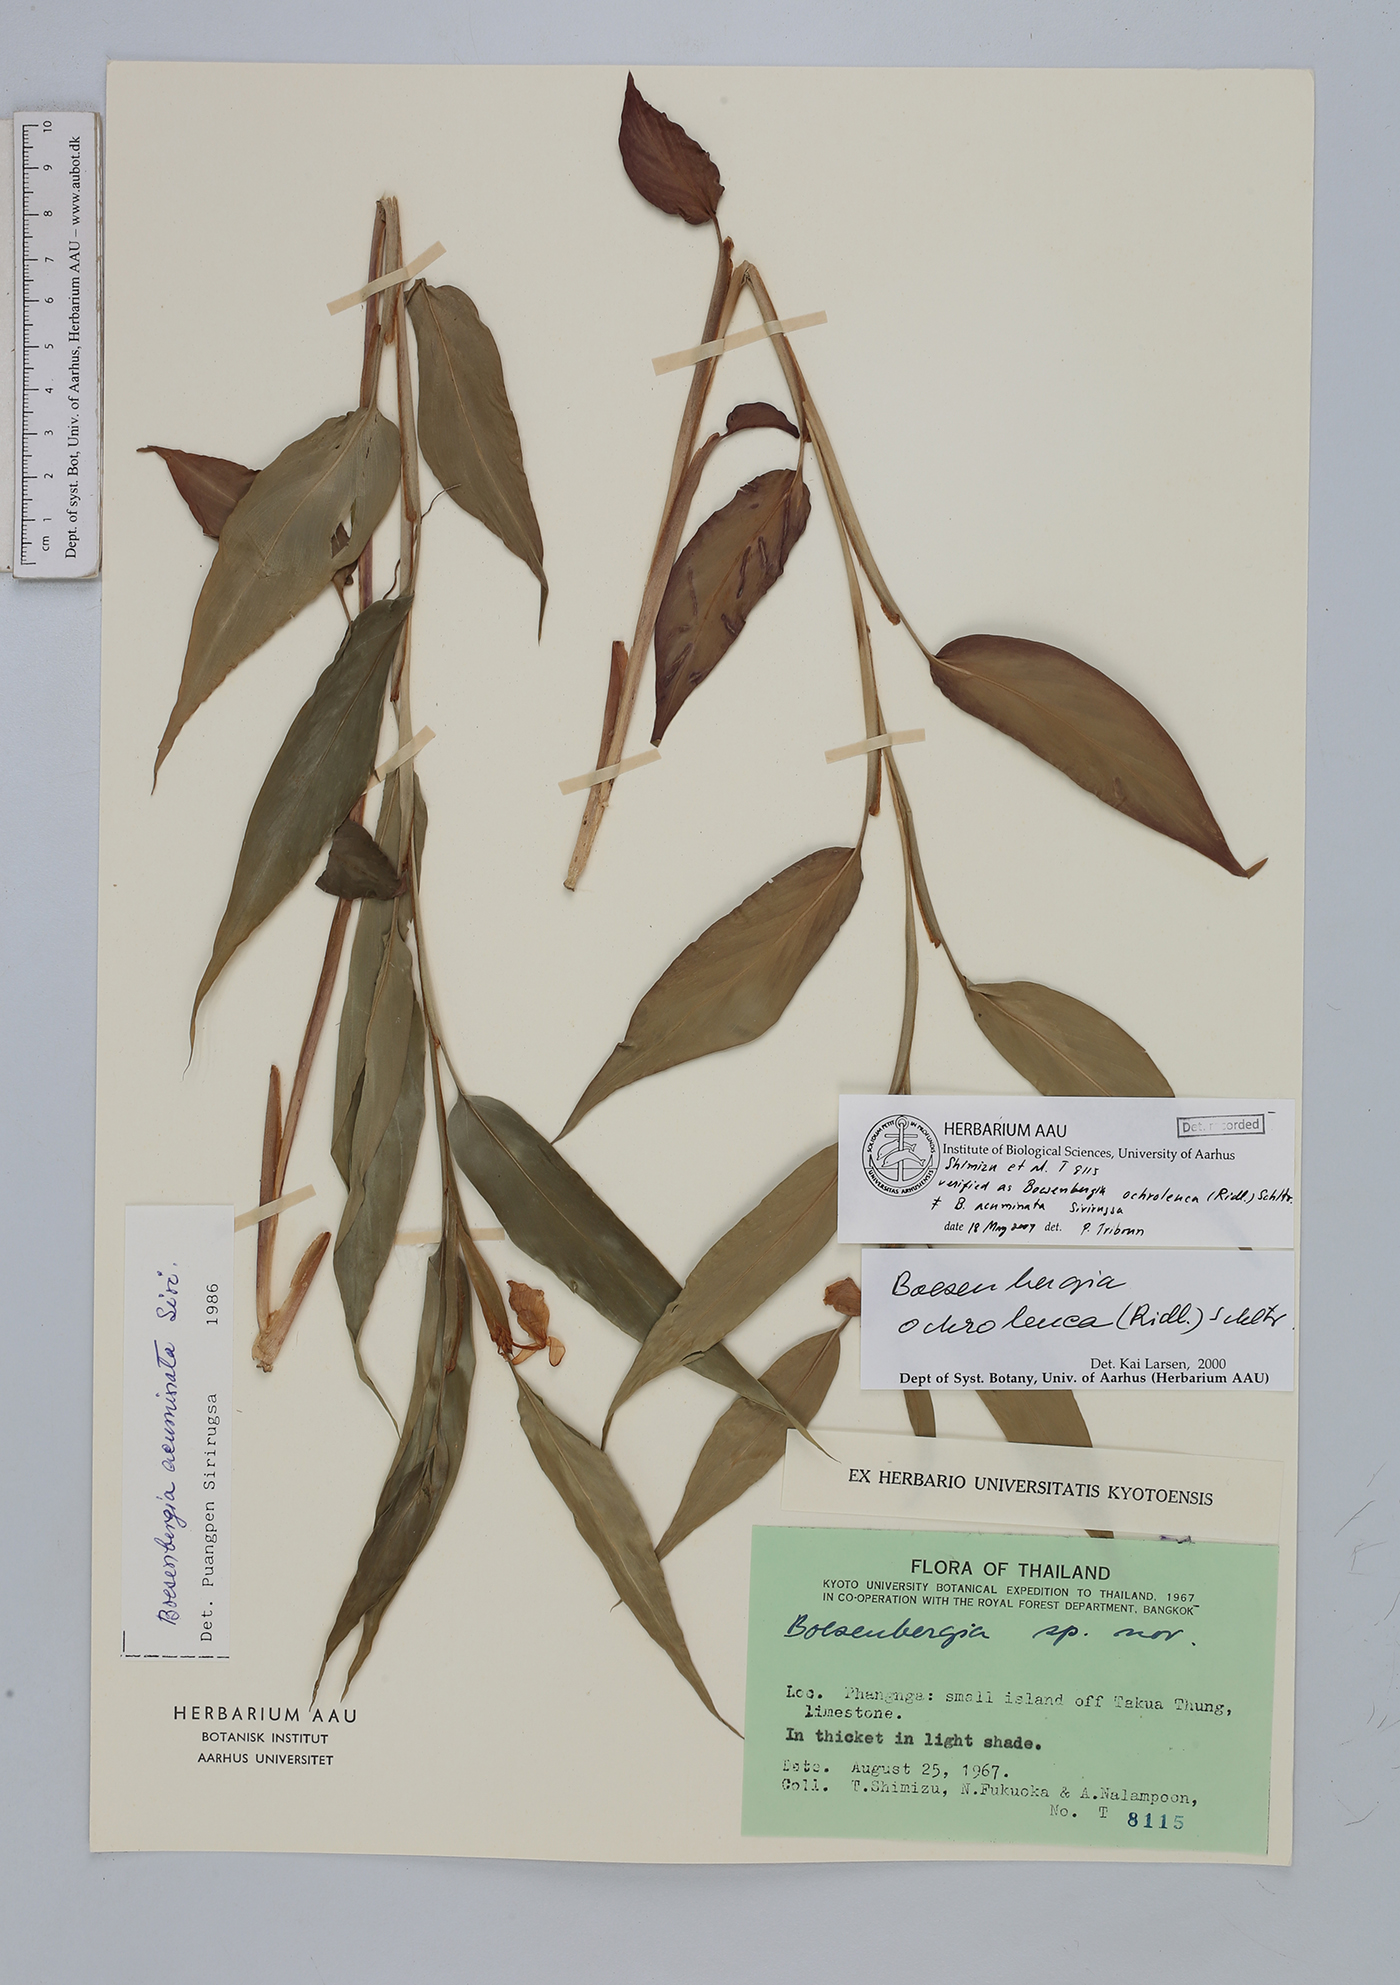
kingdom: Plantae
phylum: Tracheophyta
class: Liliopsida
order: Zingiberales
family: Zingiberaceae
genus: Boesenbergia
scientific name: Boesenbergia ochroleuca
